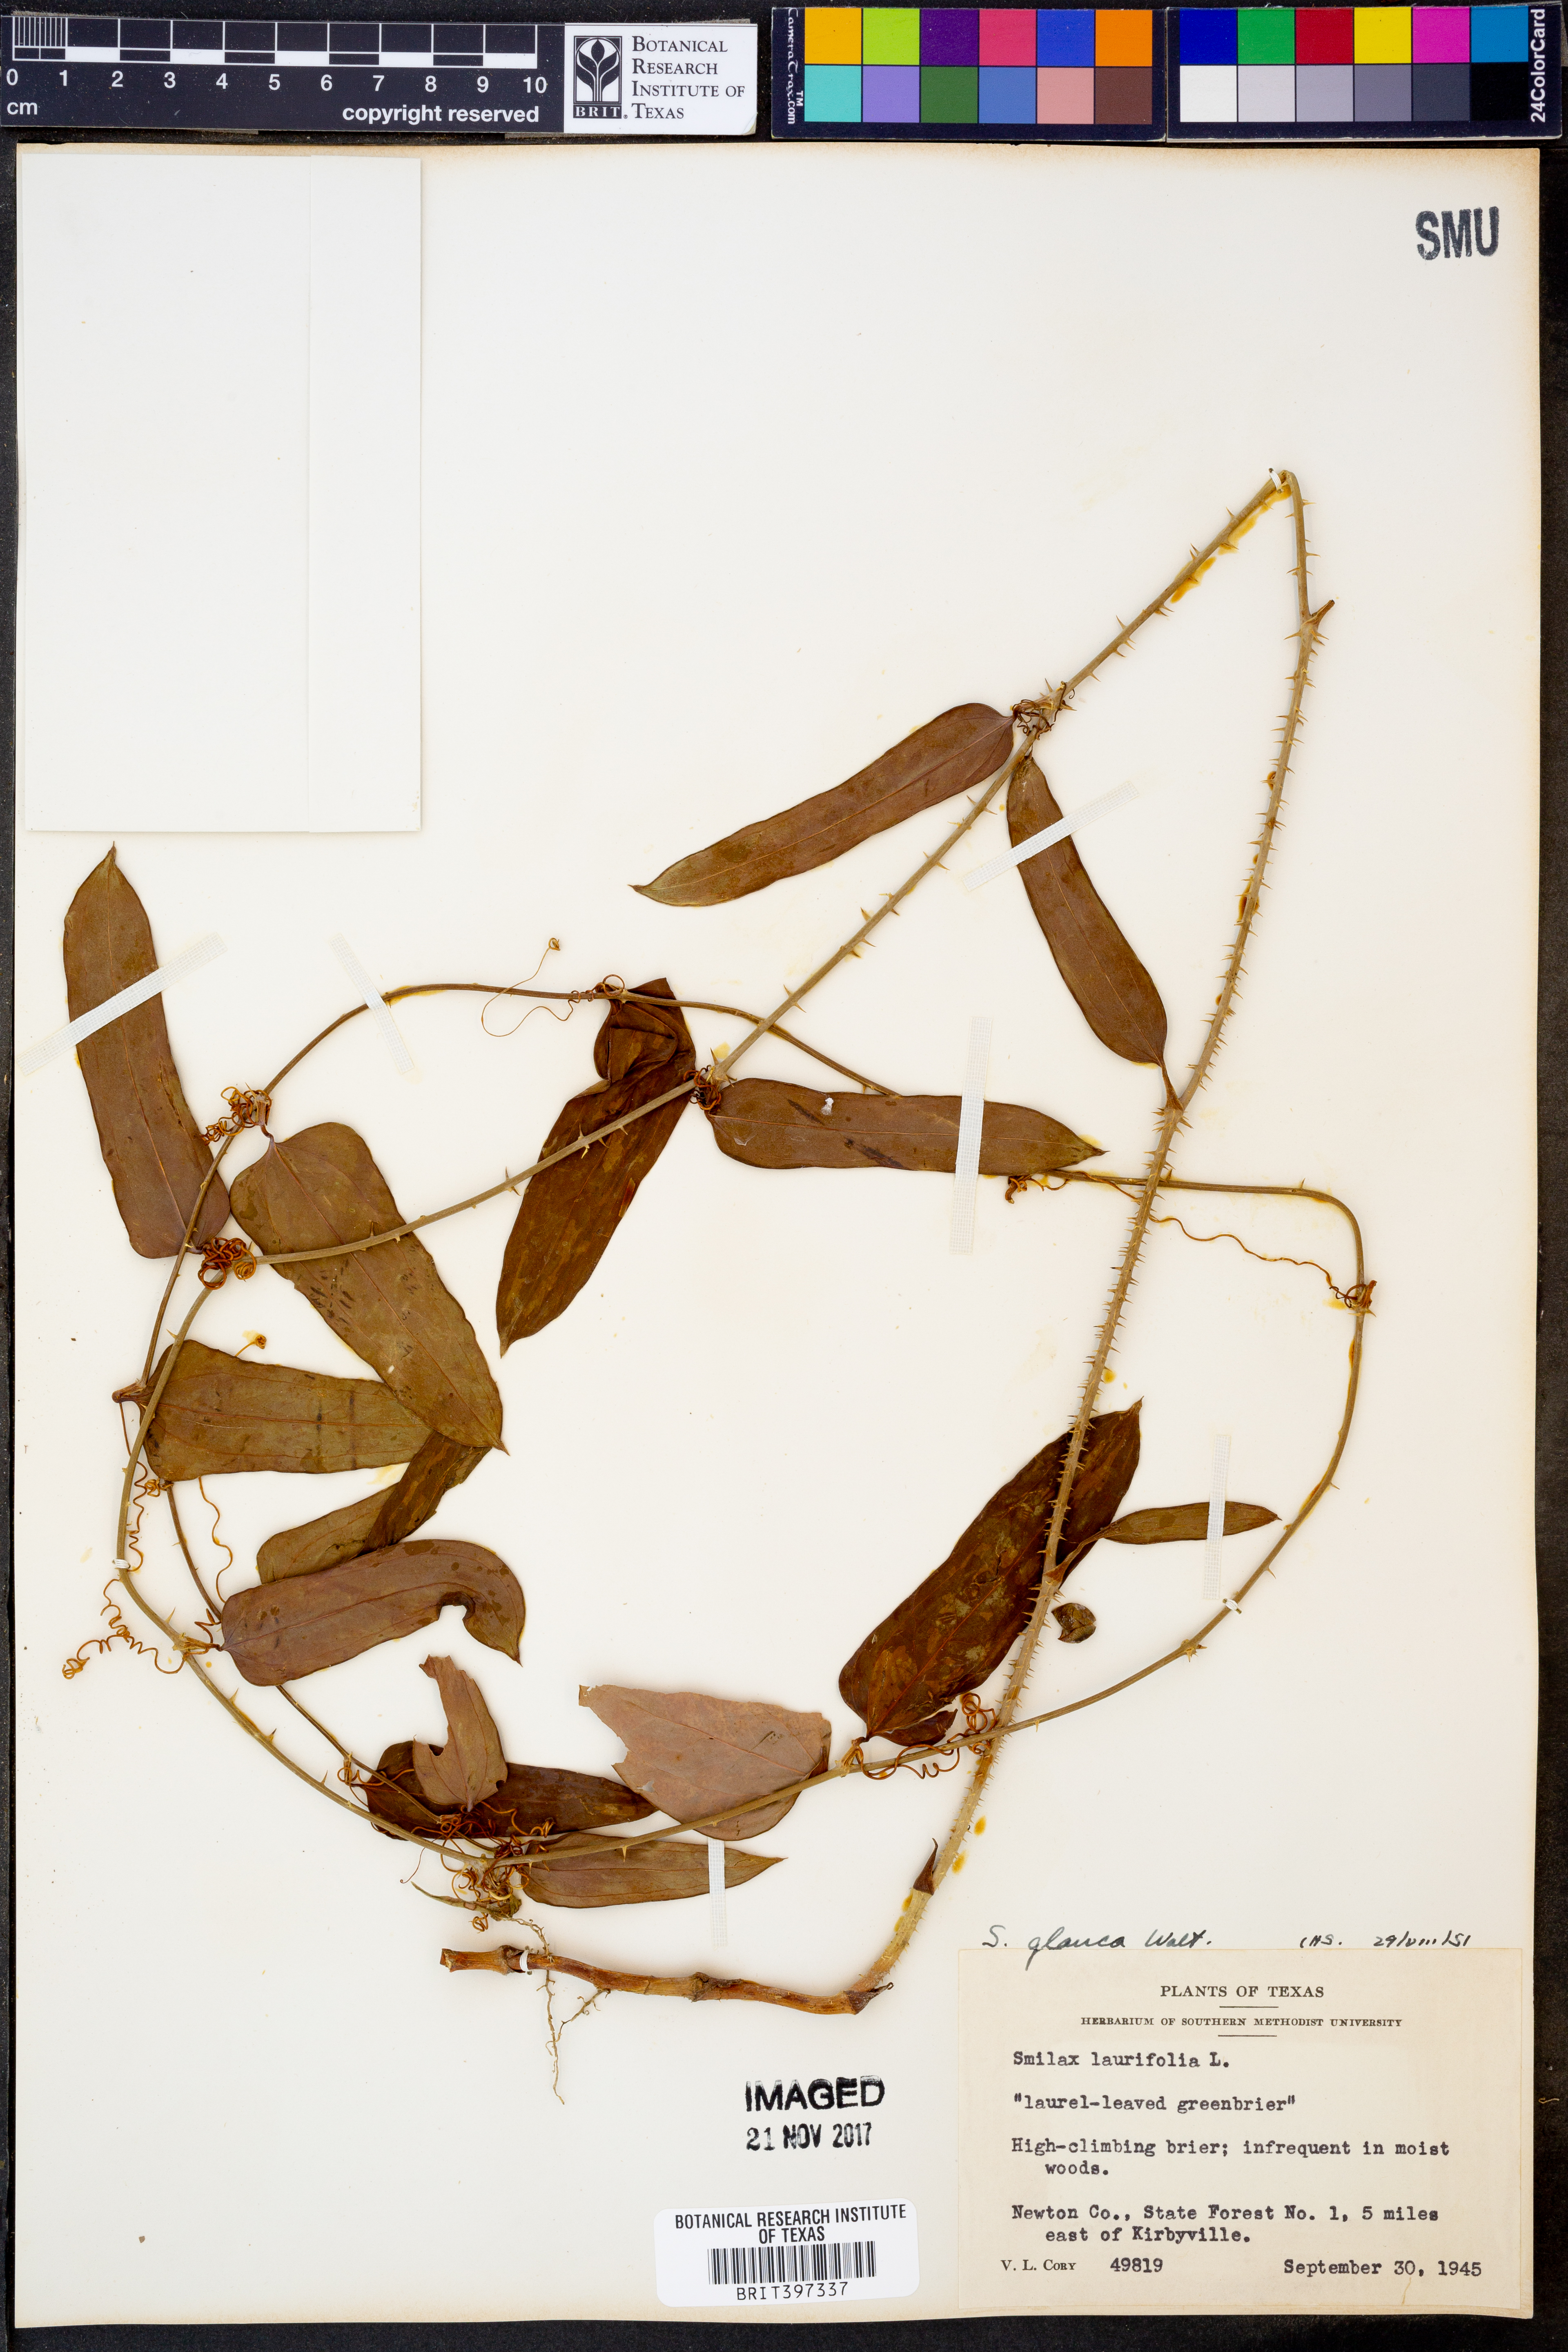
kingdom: Plantae
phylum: Tracheophyta
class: Liliopsida
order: Liliales
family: Smilacaceae
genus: Smilax
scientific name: Smilax glauca
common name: Cat greenbrier
